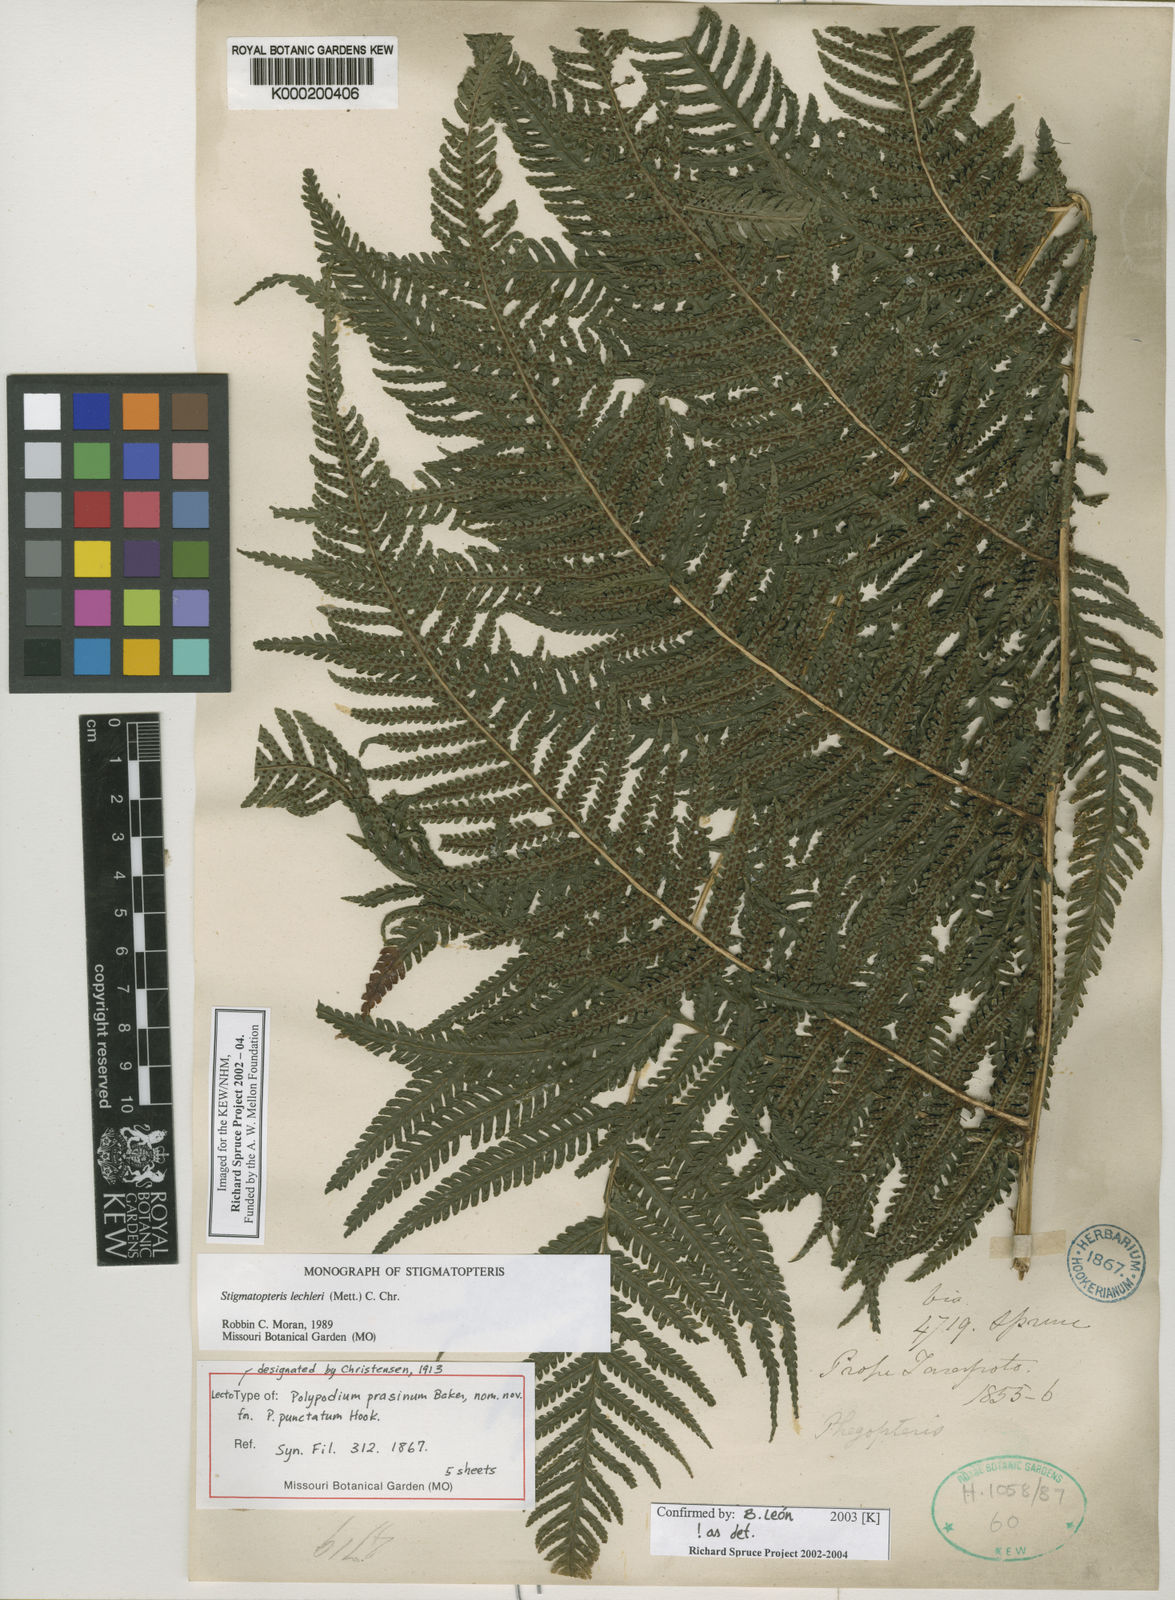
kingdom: Plantae
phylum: Tracheophyta
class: Polypodiopsida
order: Polypodiales
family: Dryopteridaceae
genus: Stigmatopteris
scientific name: Stigmatopteris lechleri
